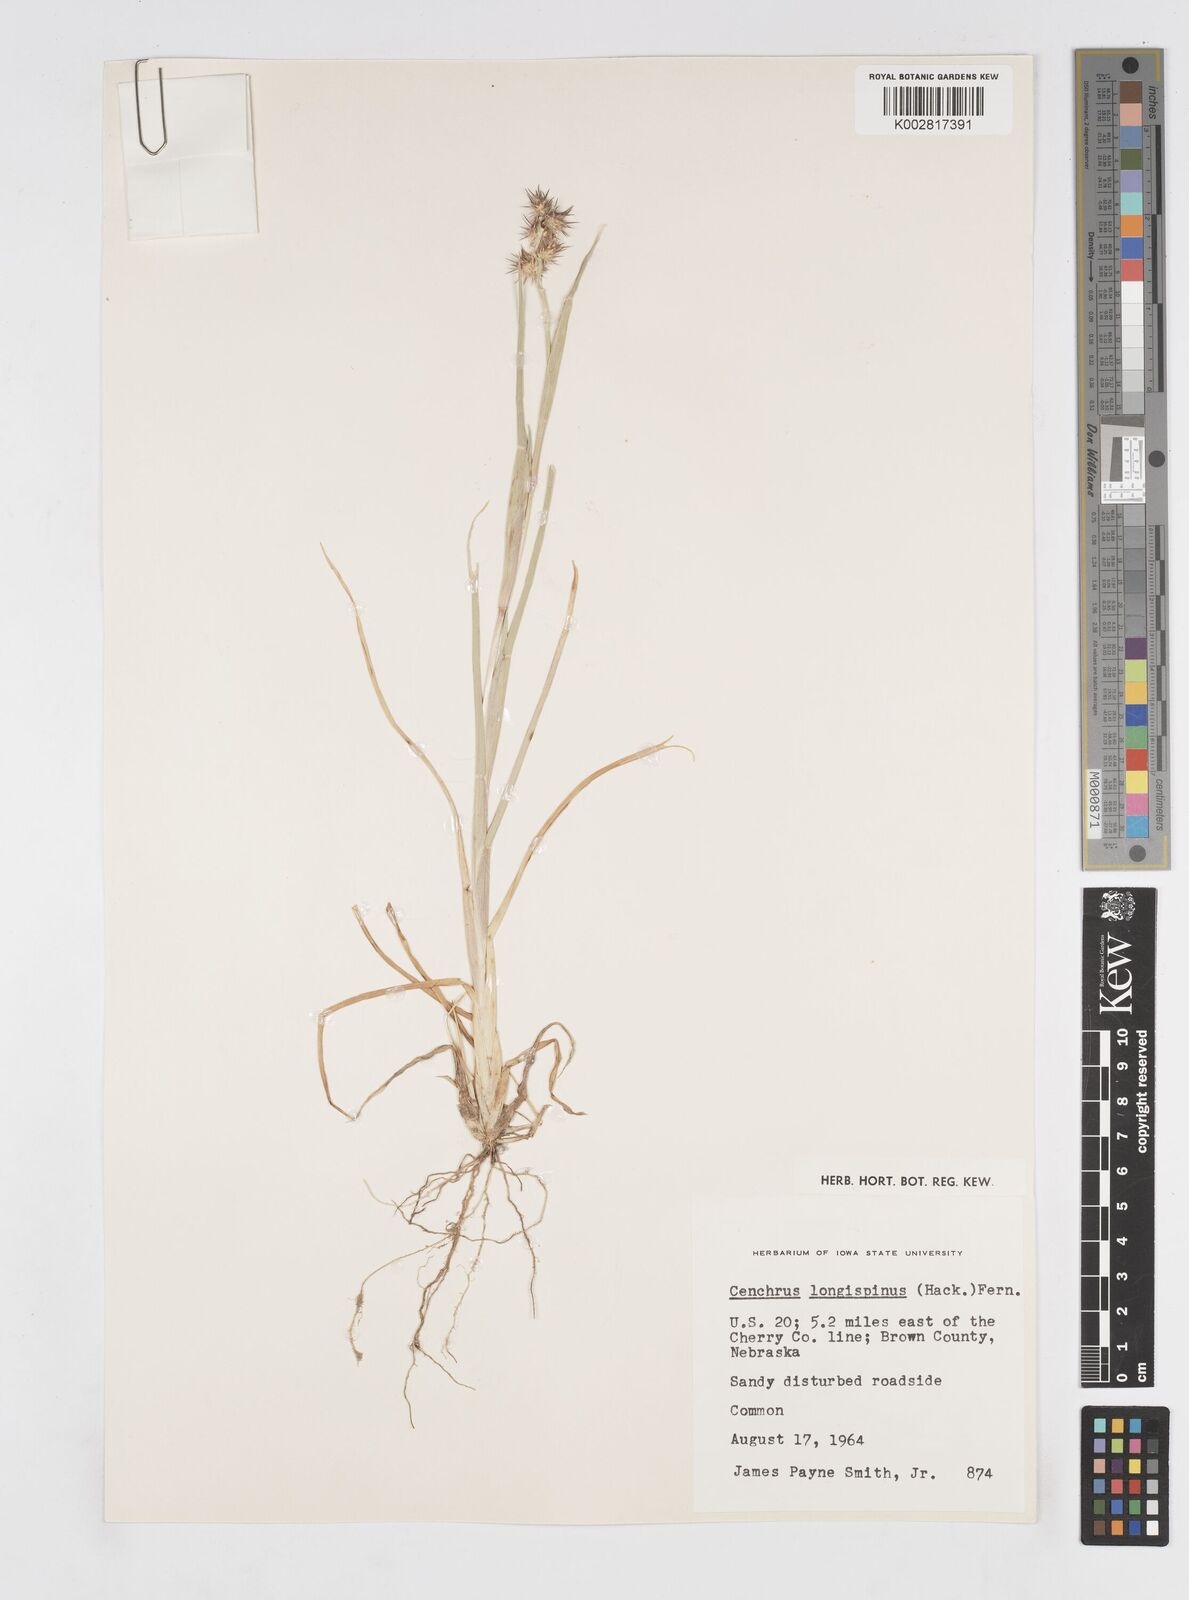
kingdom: Plantae
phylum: Tracheophyta
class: Liliopsida
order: Poales
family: Poaceae
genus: Cenchrus
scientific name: Cenchrus longispinus
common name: Mat sandbur
